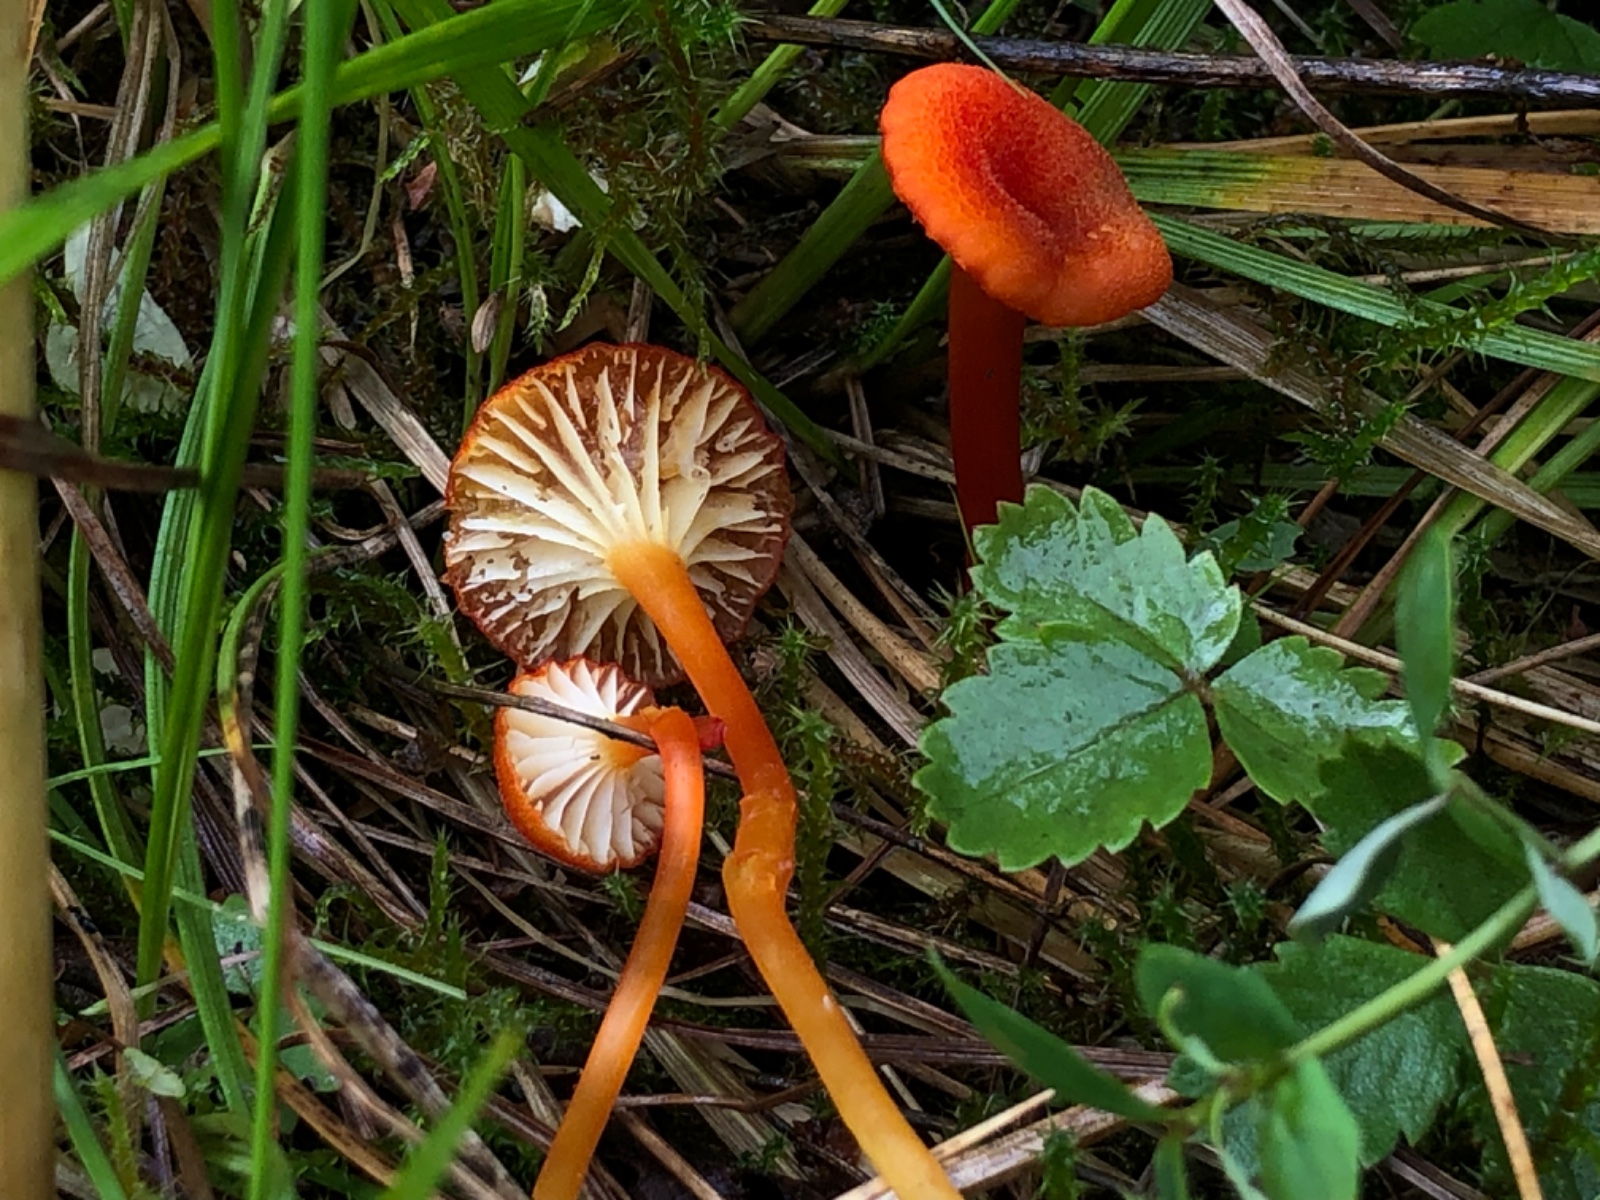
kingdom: Fungi
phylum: Basidiomycota
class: Agaricomycetes
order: Agaricales
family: Hygrophoraceae
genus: Hygrocybe
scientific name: Hygrocybe cantharellus
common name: kantarel-vokshat
